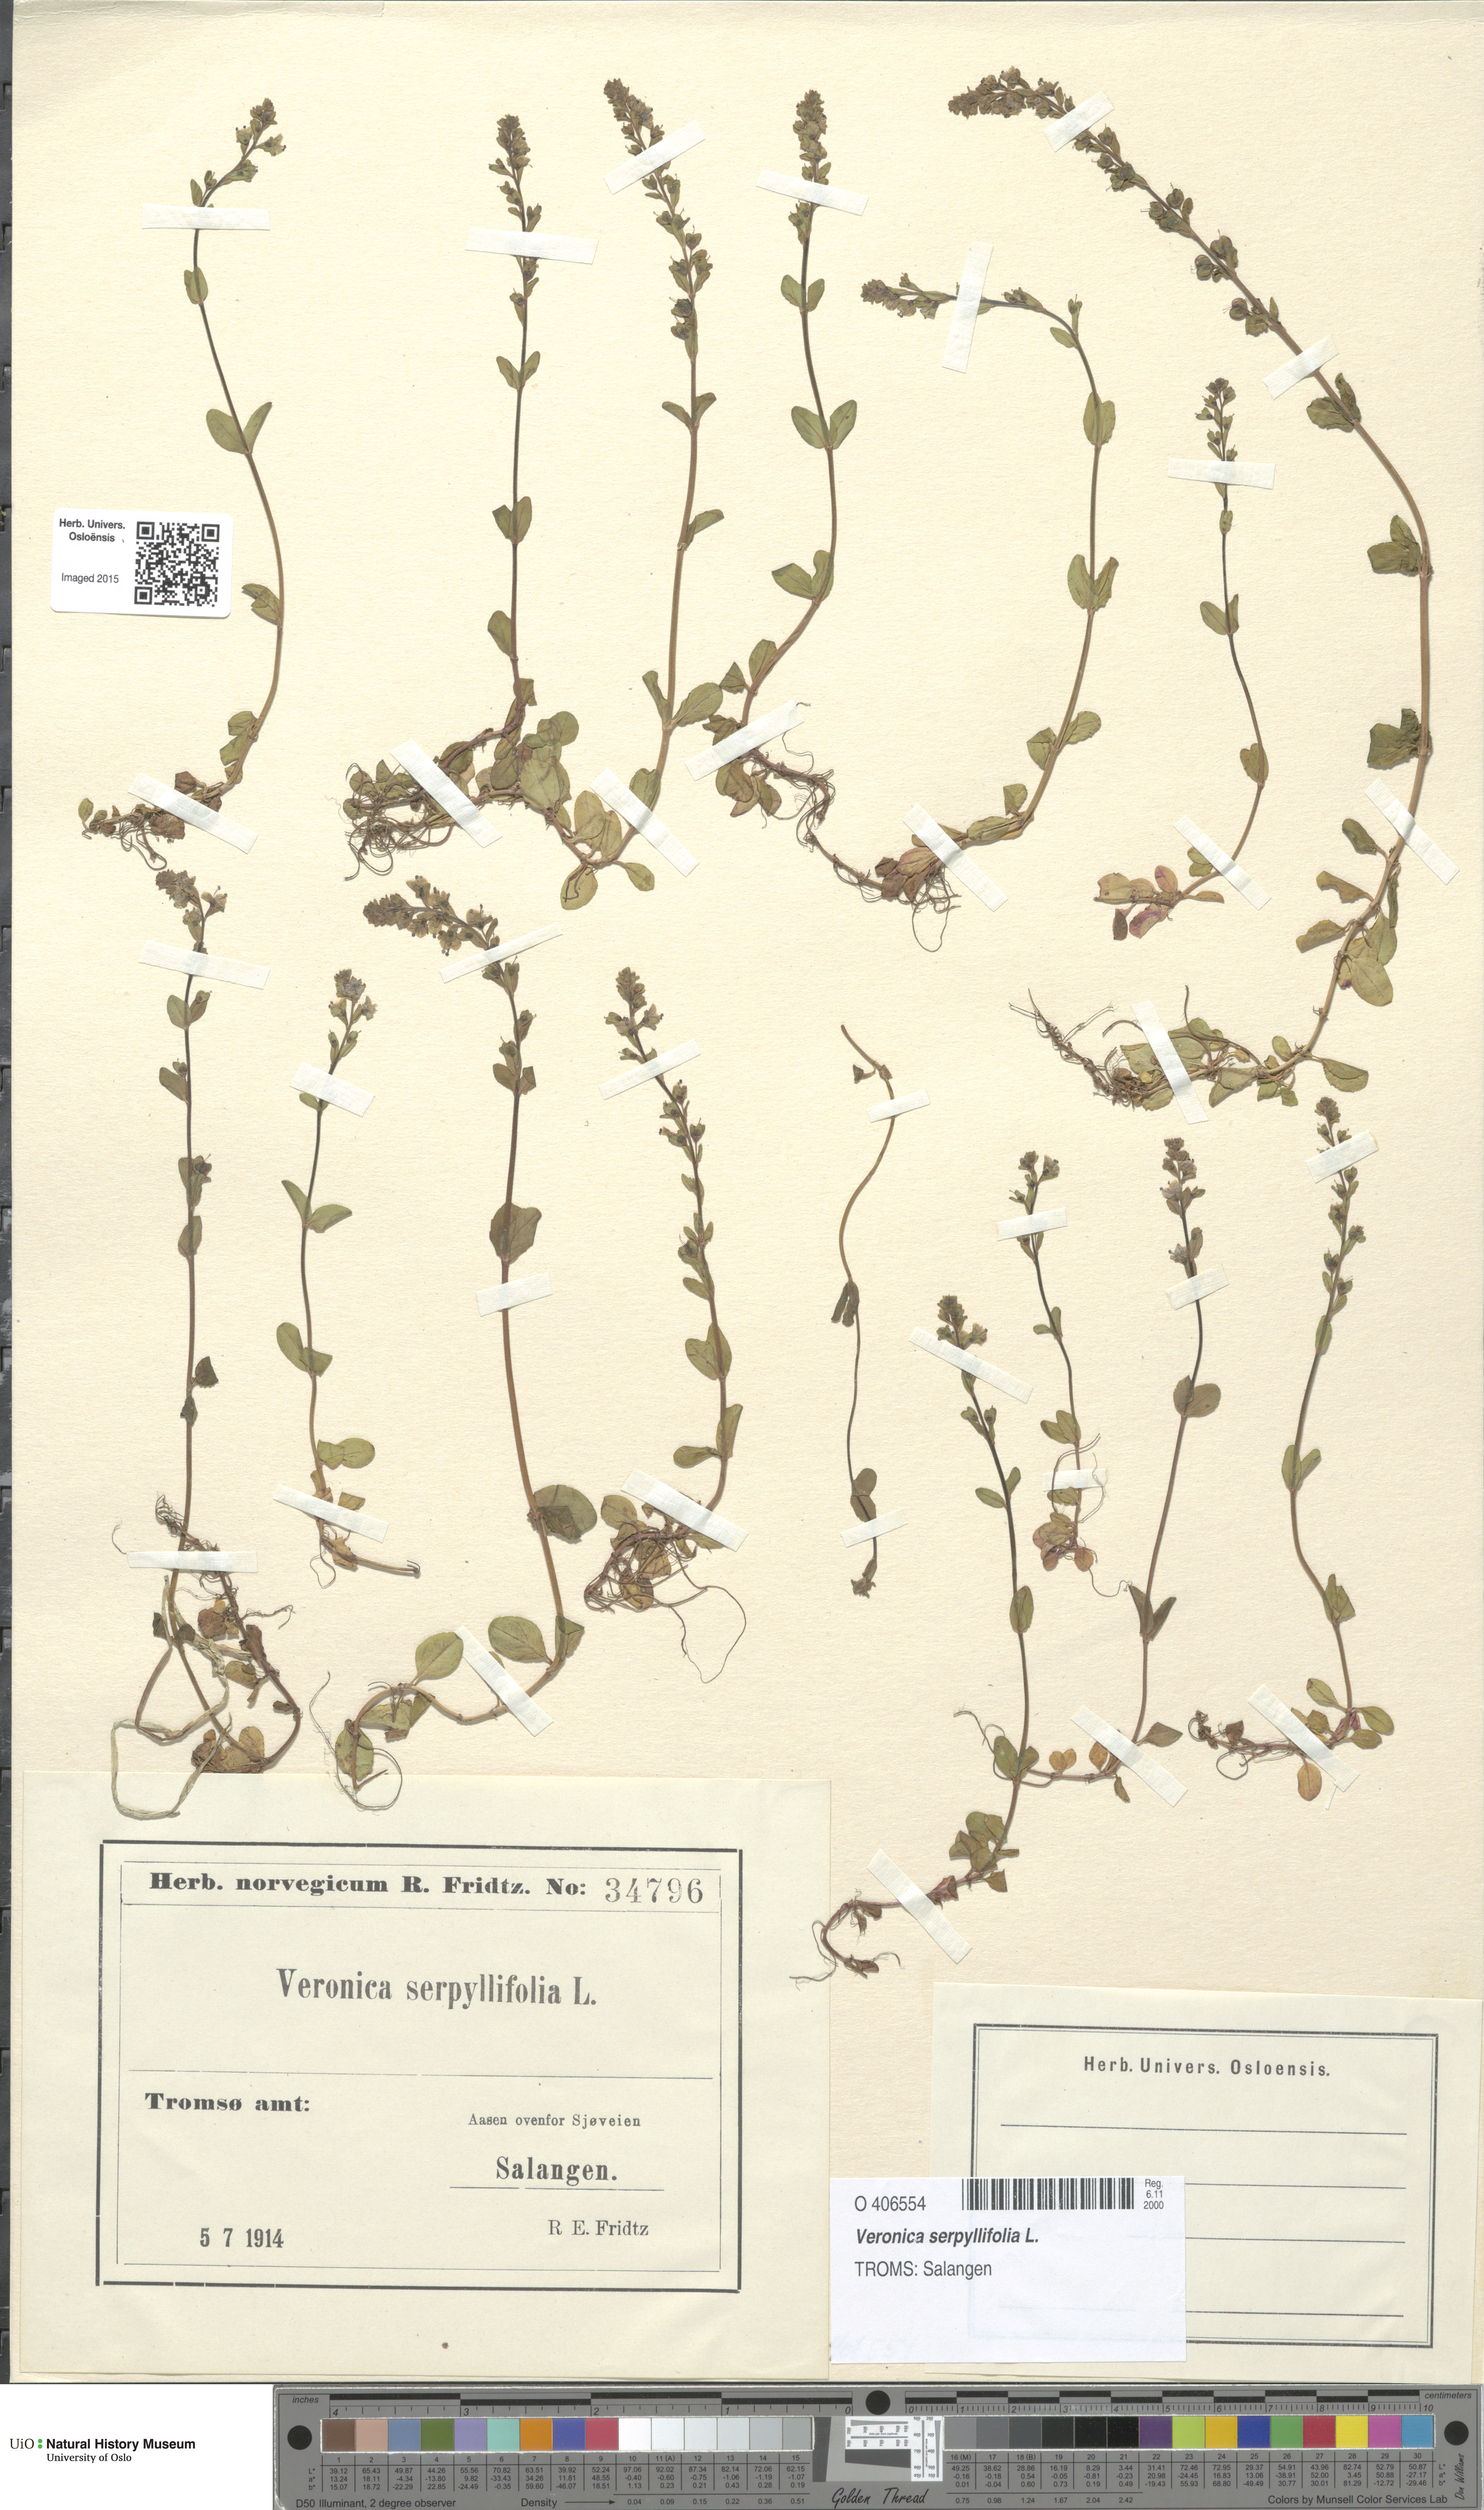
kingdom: Plantae
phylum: Tracheophyta
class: Magnoliopsida
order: Lamiales
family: Plantaginaceae
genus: Veronica
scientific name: Veronica serpyllifolia
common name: Thyme-leaved speedwell
